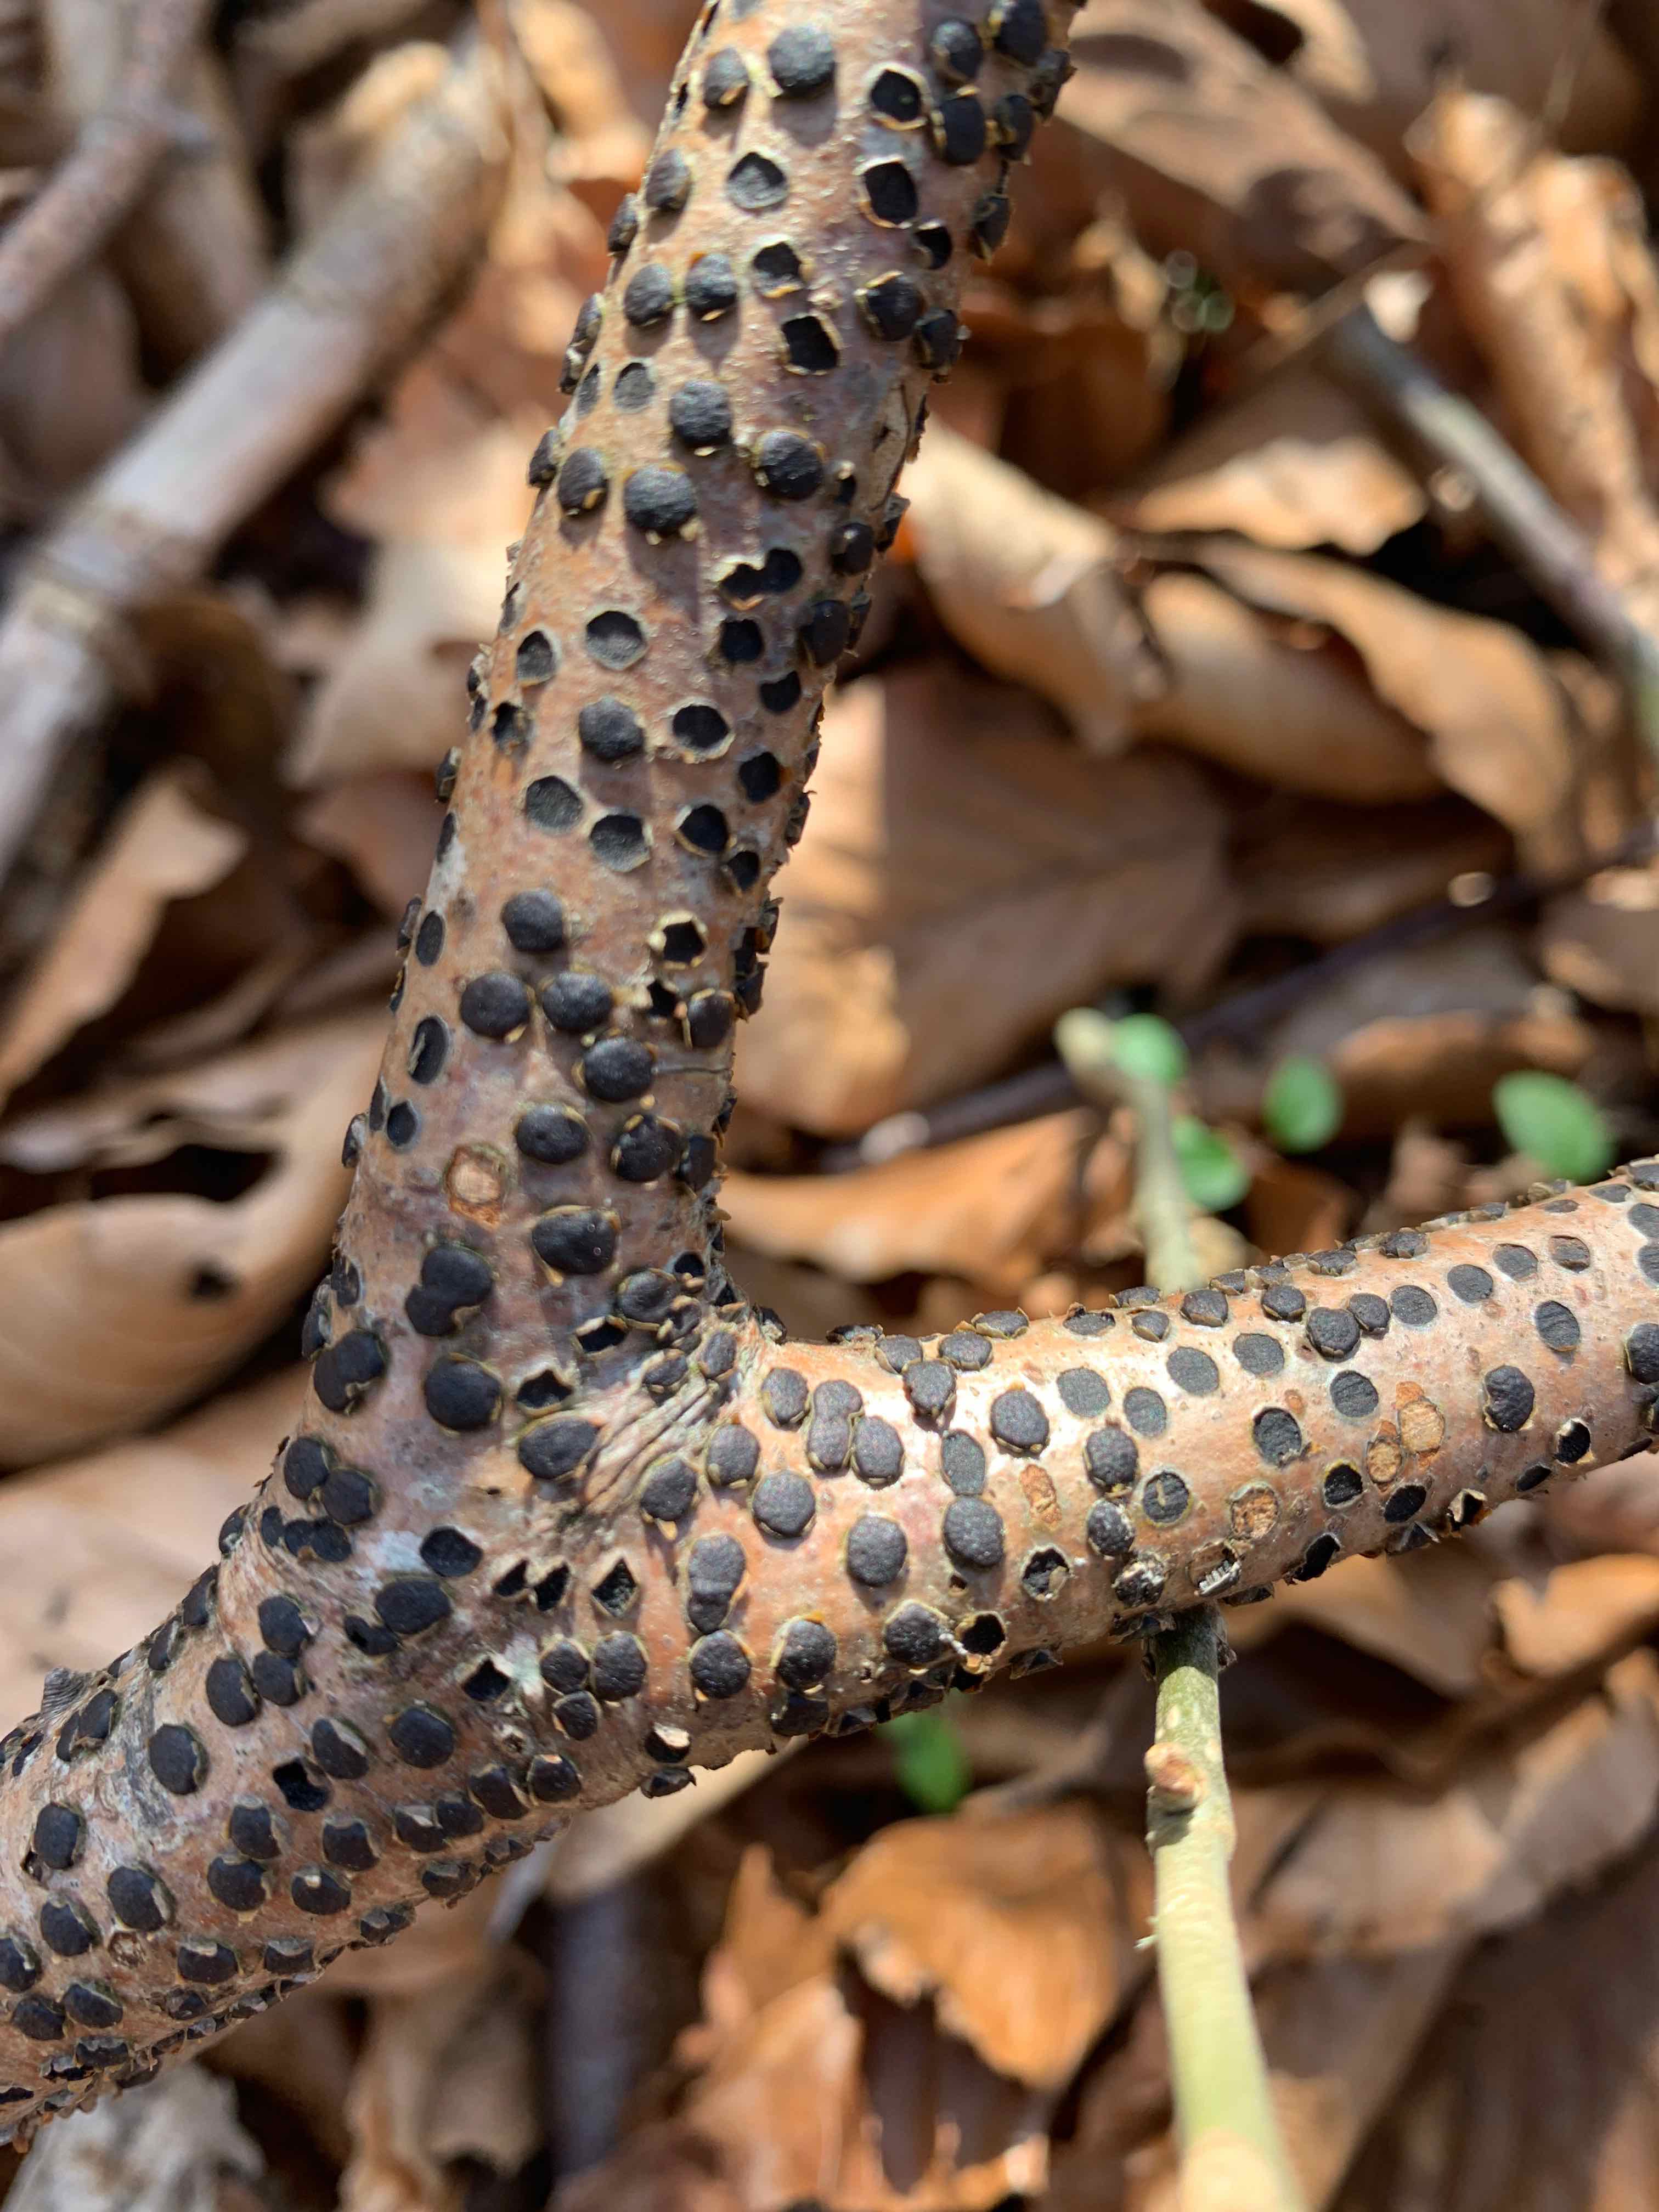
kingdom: Fungi
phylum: Ascomycota
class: Sordariomycetes
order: Xylariales
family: Diatrypaceae
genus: Diatrype
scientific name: Diatrype disciformis
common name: kant-kulskorpe
